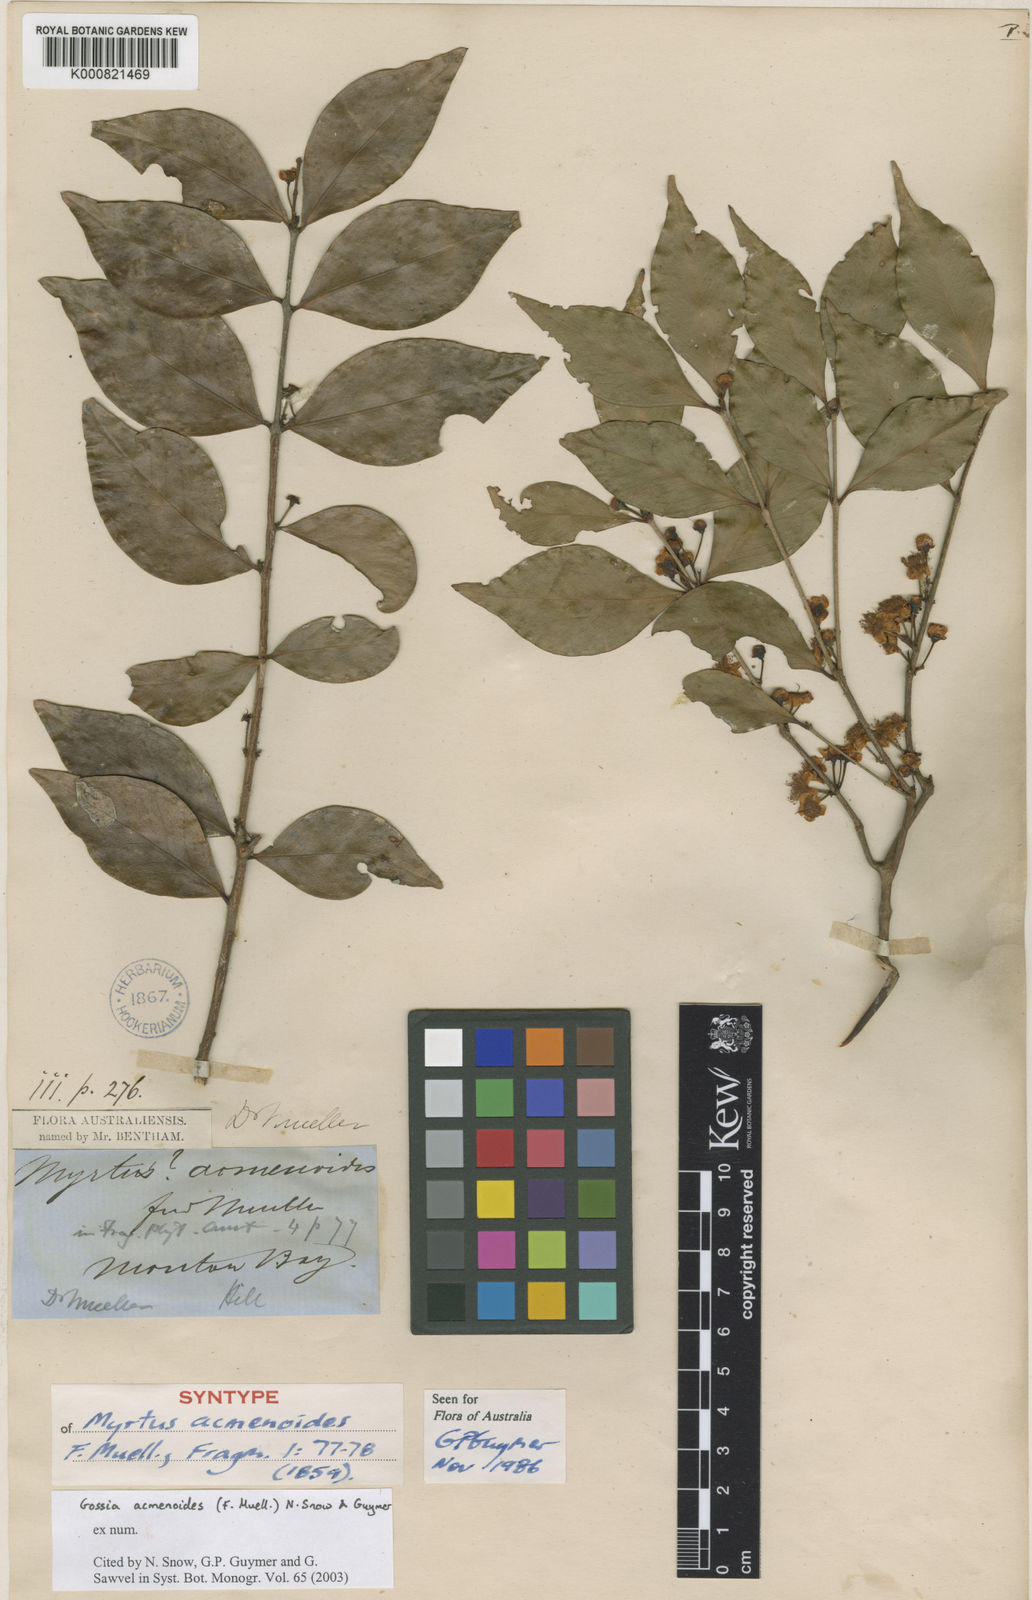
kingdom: Plantae
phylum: Tracheophyta
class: Magnoliopsida
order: Myrtales
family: Myrtaceae
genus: Gossia
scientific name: Gossia acmenoides
